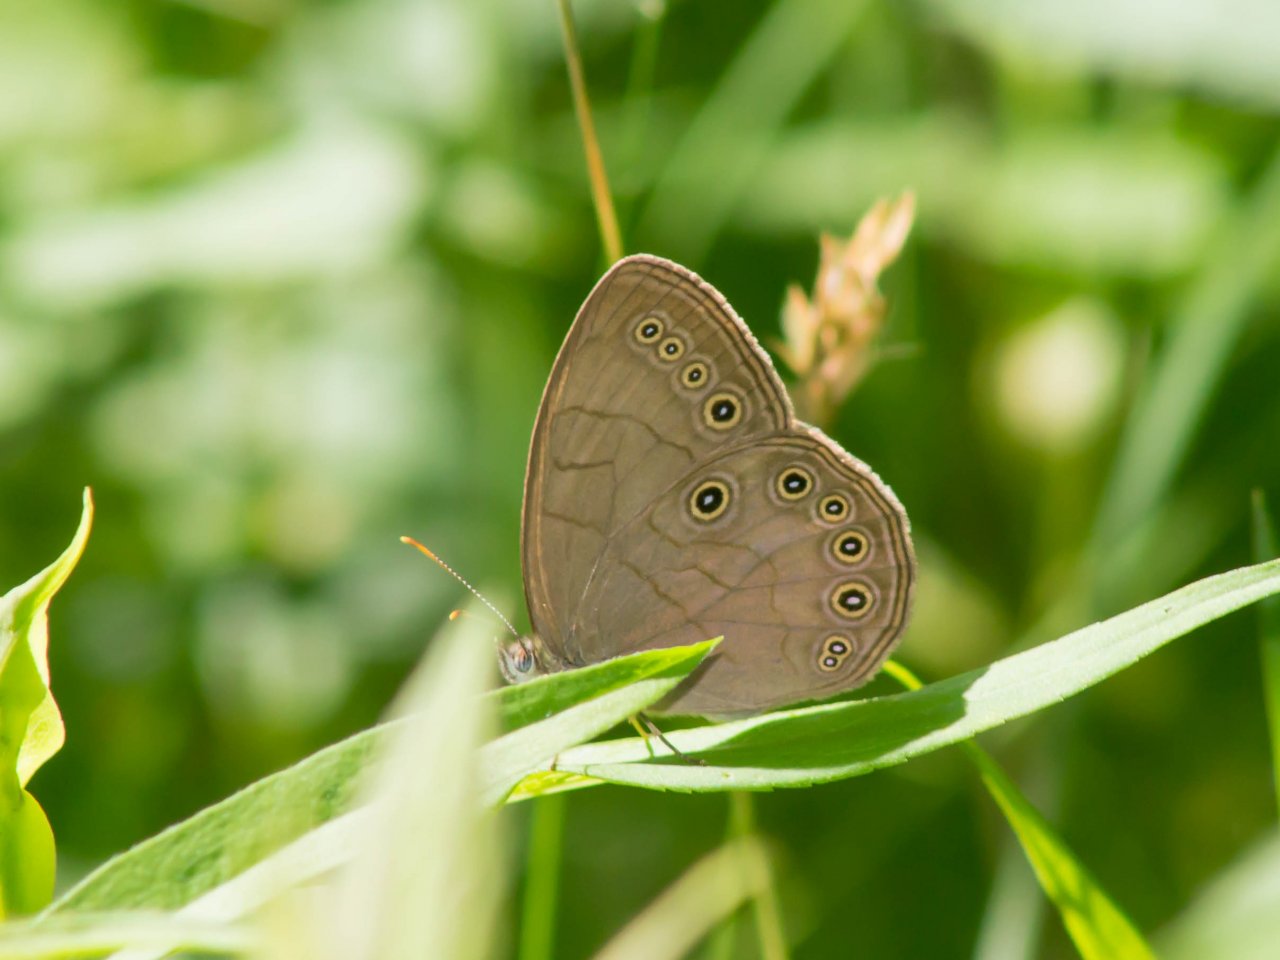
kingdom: Animalia
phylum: Arthropoda
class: Insecta
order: Lepidoptera
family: Nymphalidae
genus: Lethe
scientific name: Lethe eurydice
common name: Appalachian Eyed Brown
